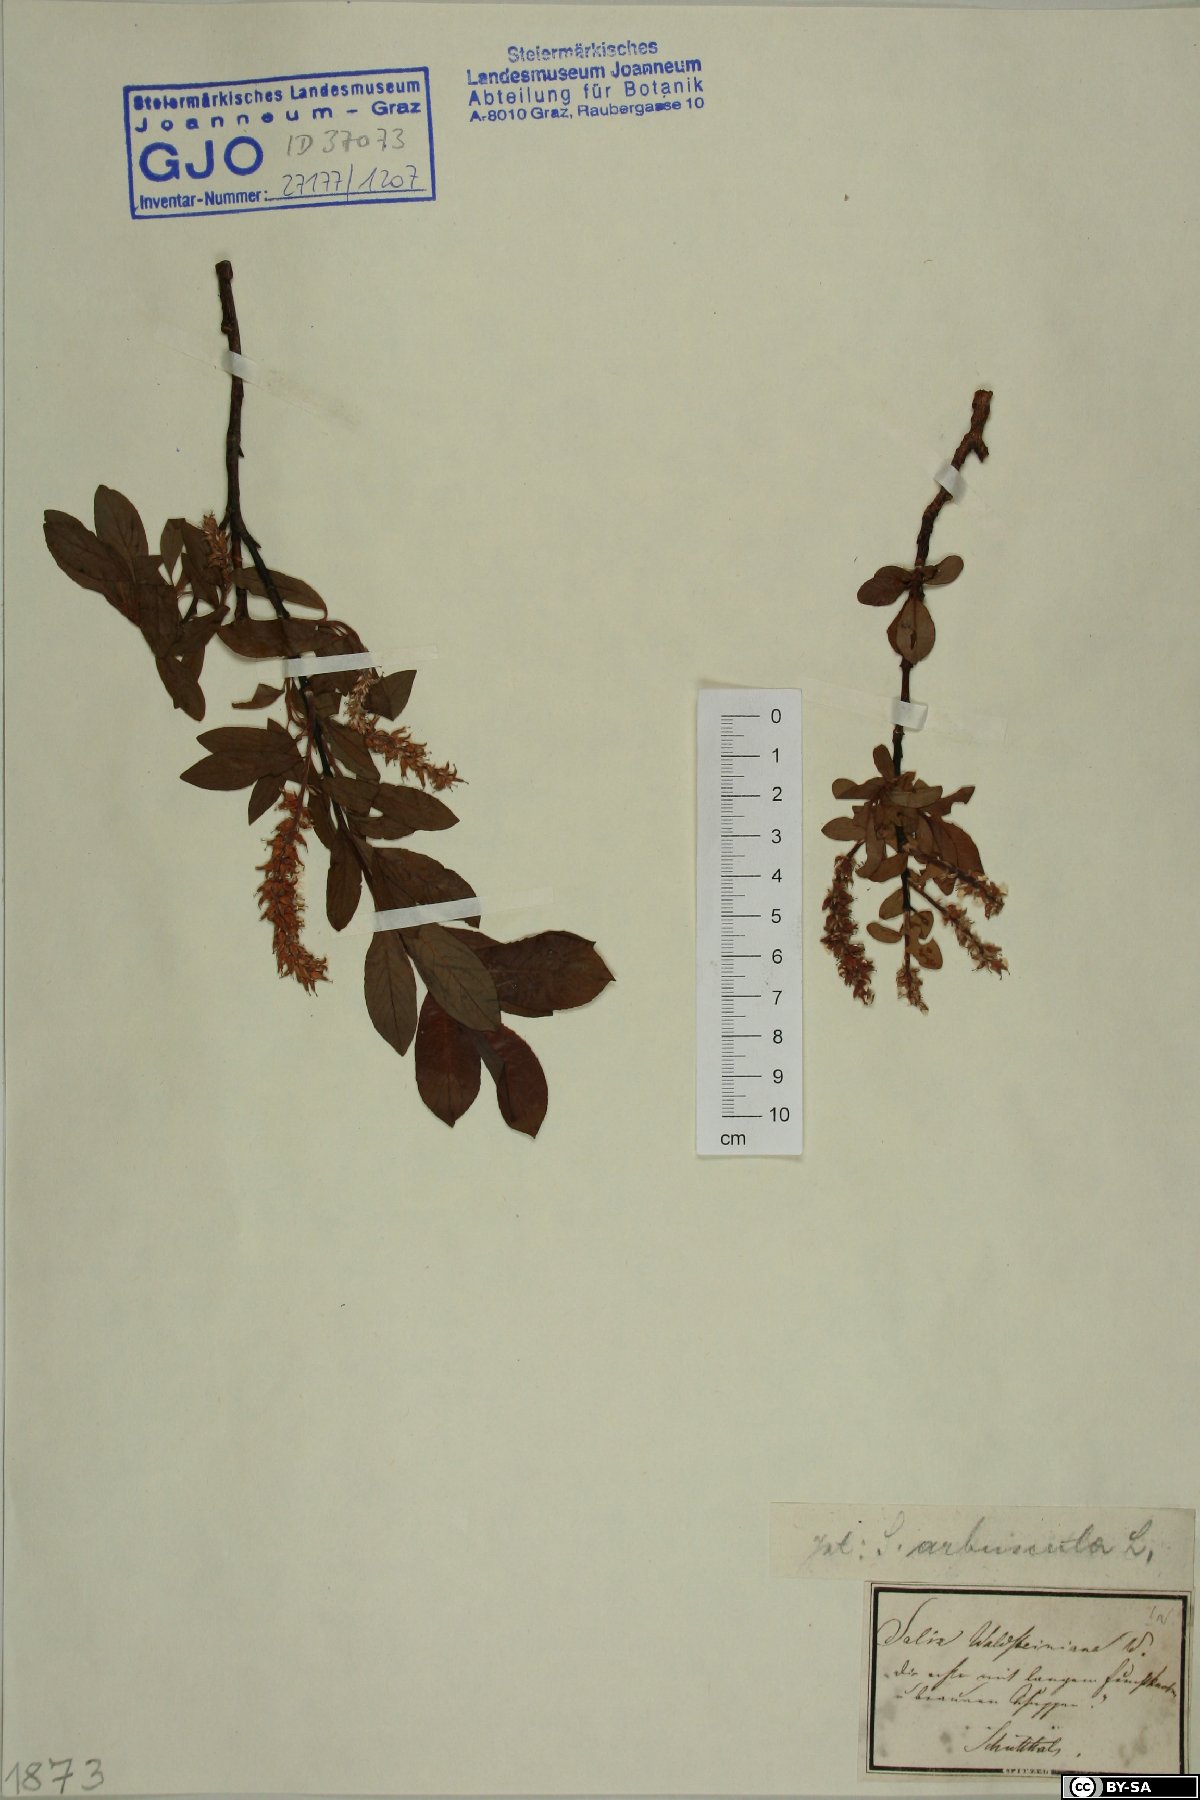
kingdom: Plantae
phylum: Tracheophyta
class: Magnoliopsida
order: Malpighiales
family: Salicaceae
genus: Salix
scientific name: Salix waldsteiniana
